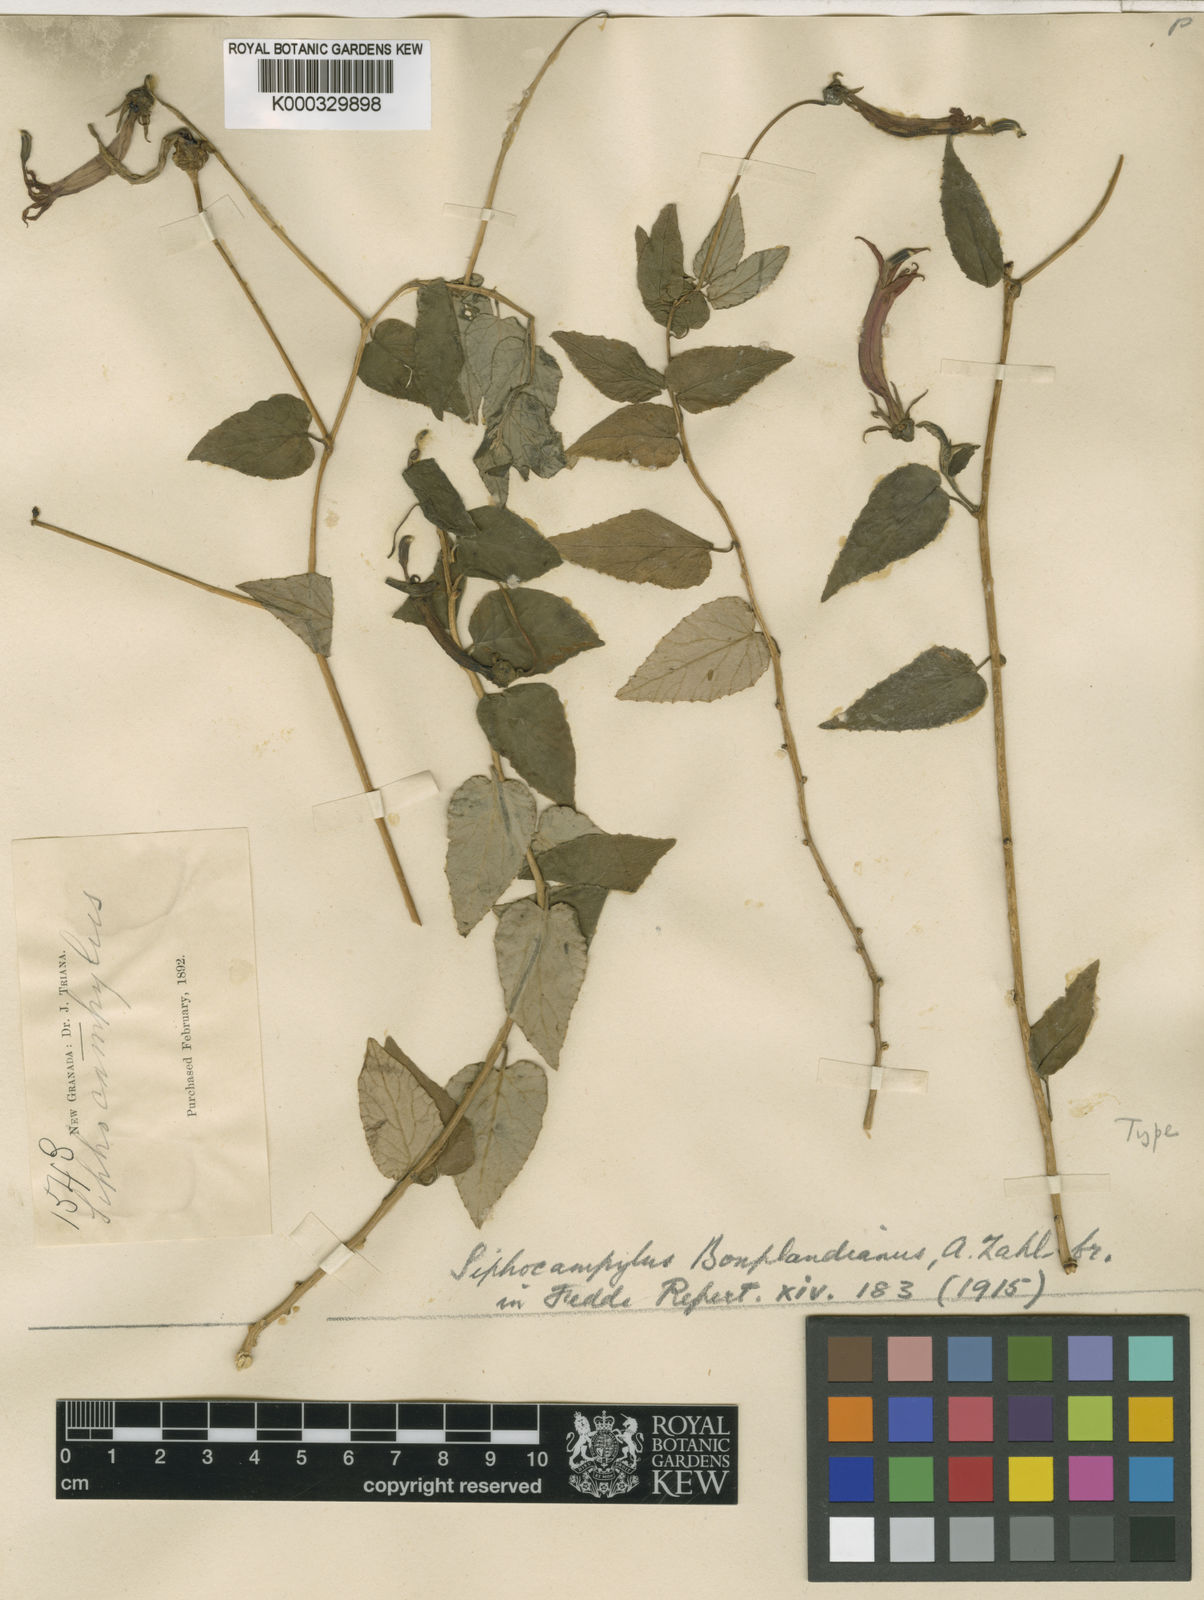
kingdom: Plantae
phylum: Tracheophyta
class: Magnoliopsida
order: Asterales
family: Campanulaceae
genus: Siphocampylus
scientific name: Siphocampylus bonplandianus
